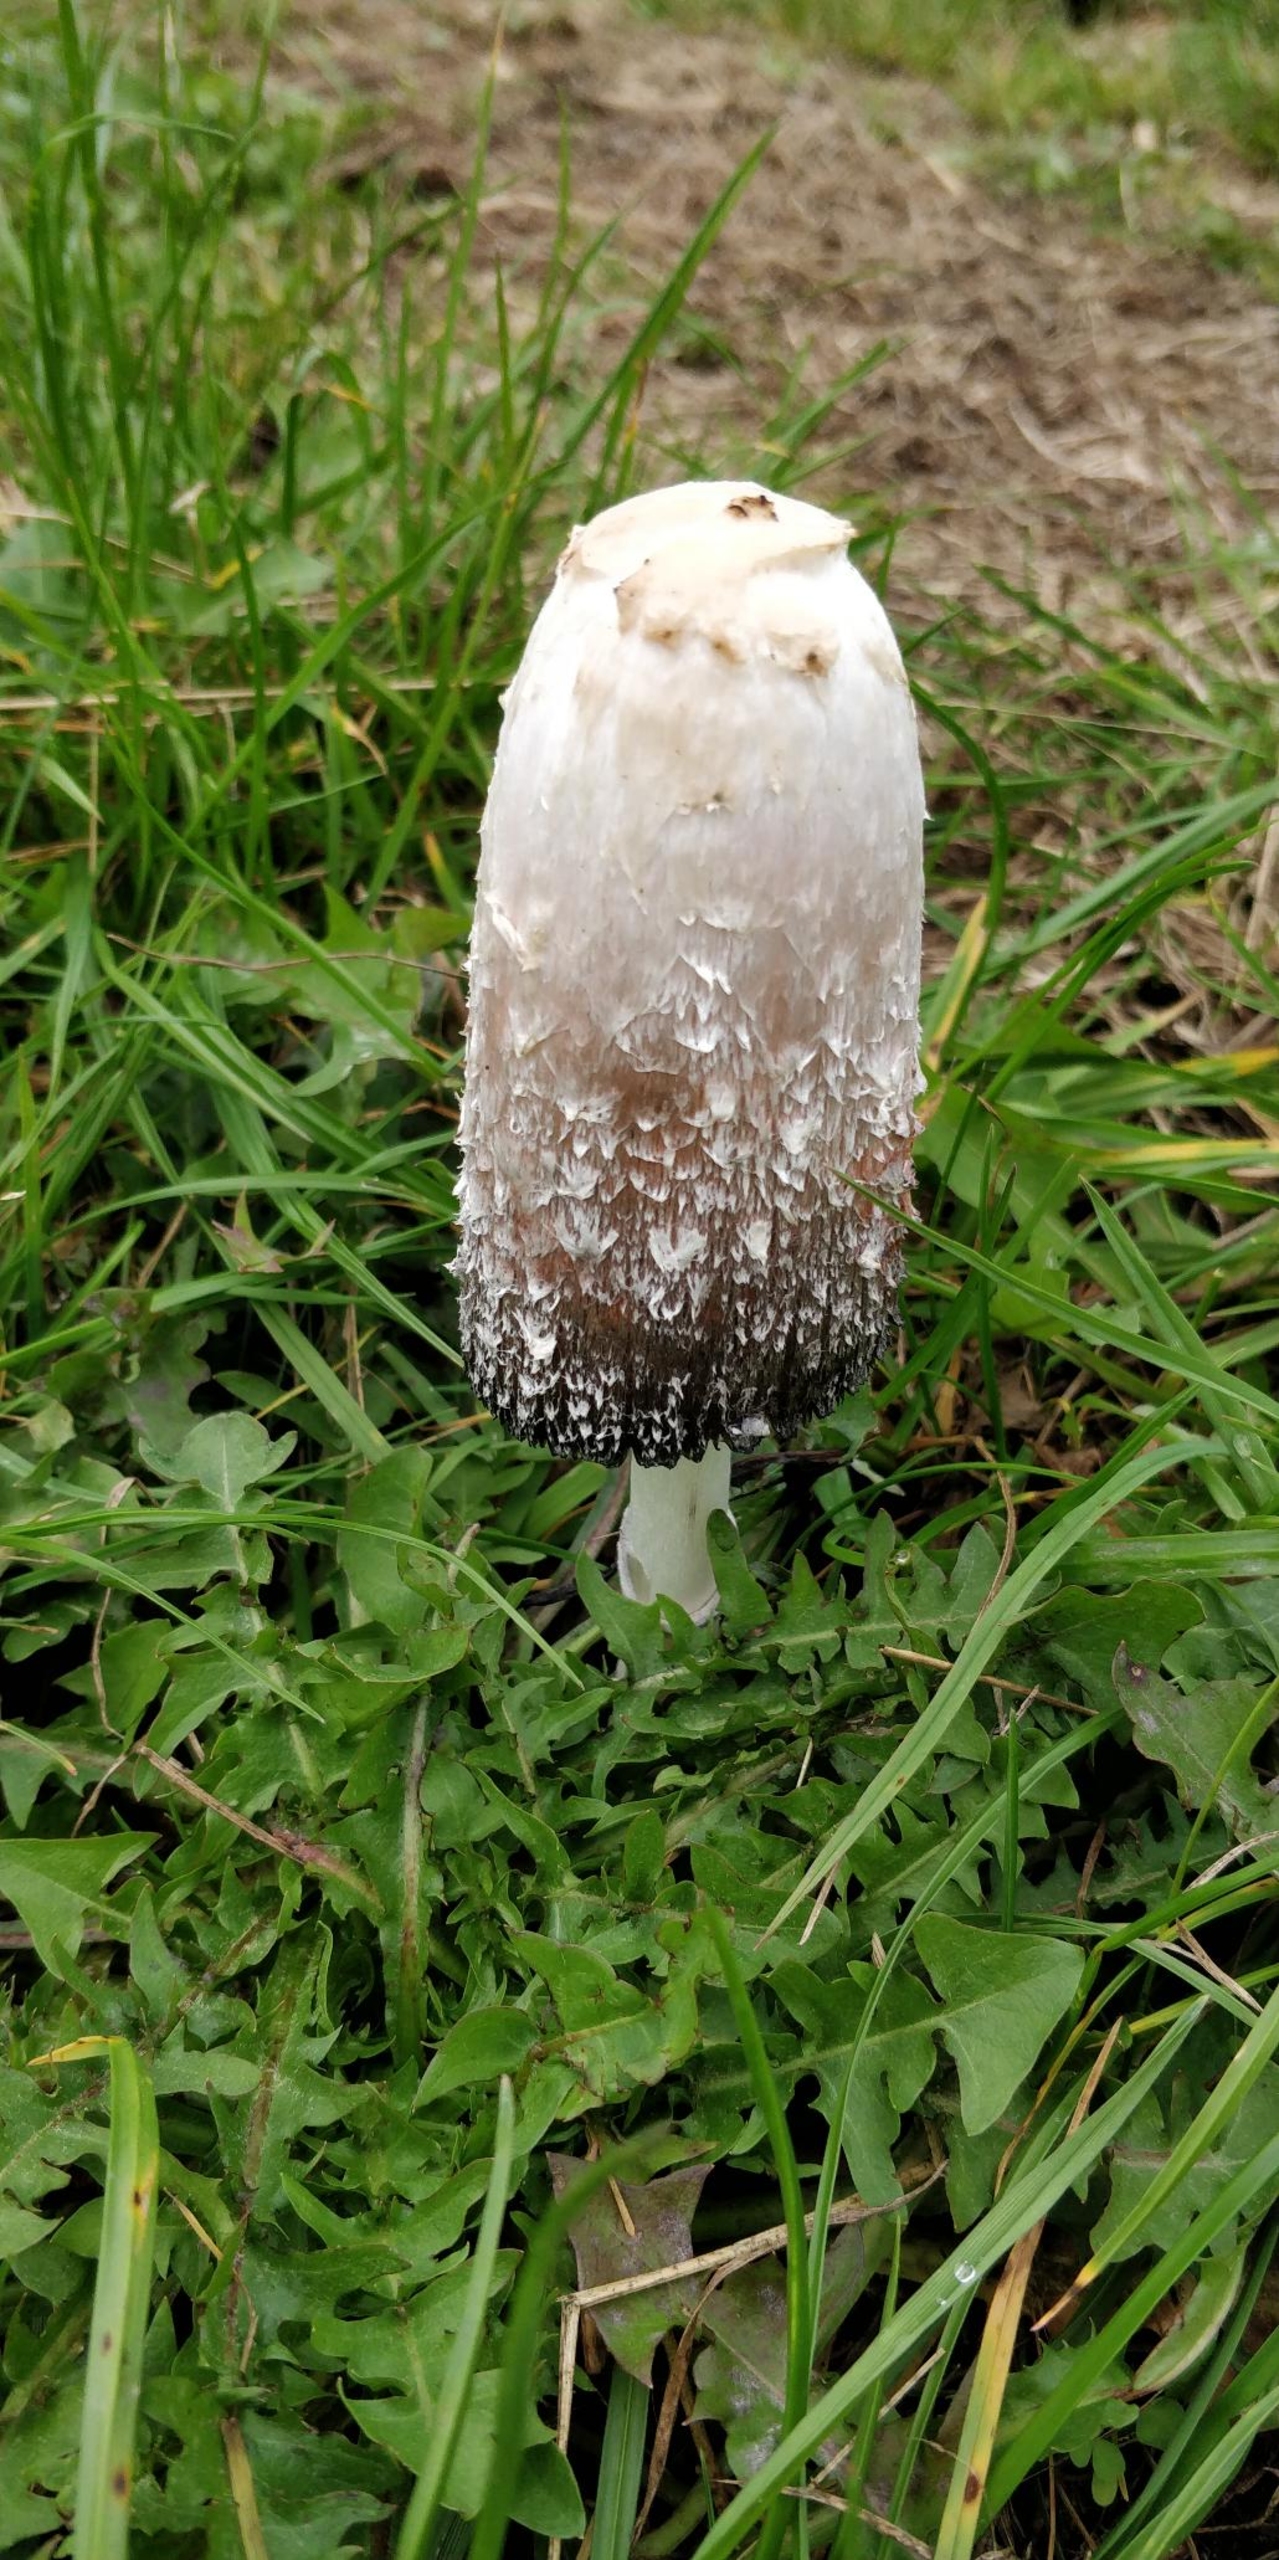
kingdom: Fungi
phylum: Basidiomycota
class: Agaricomycetes
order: Agaricales
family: Agaricaceae
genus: Coprinus
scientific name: Coprinus comatus
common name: Stor parykhat
